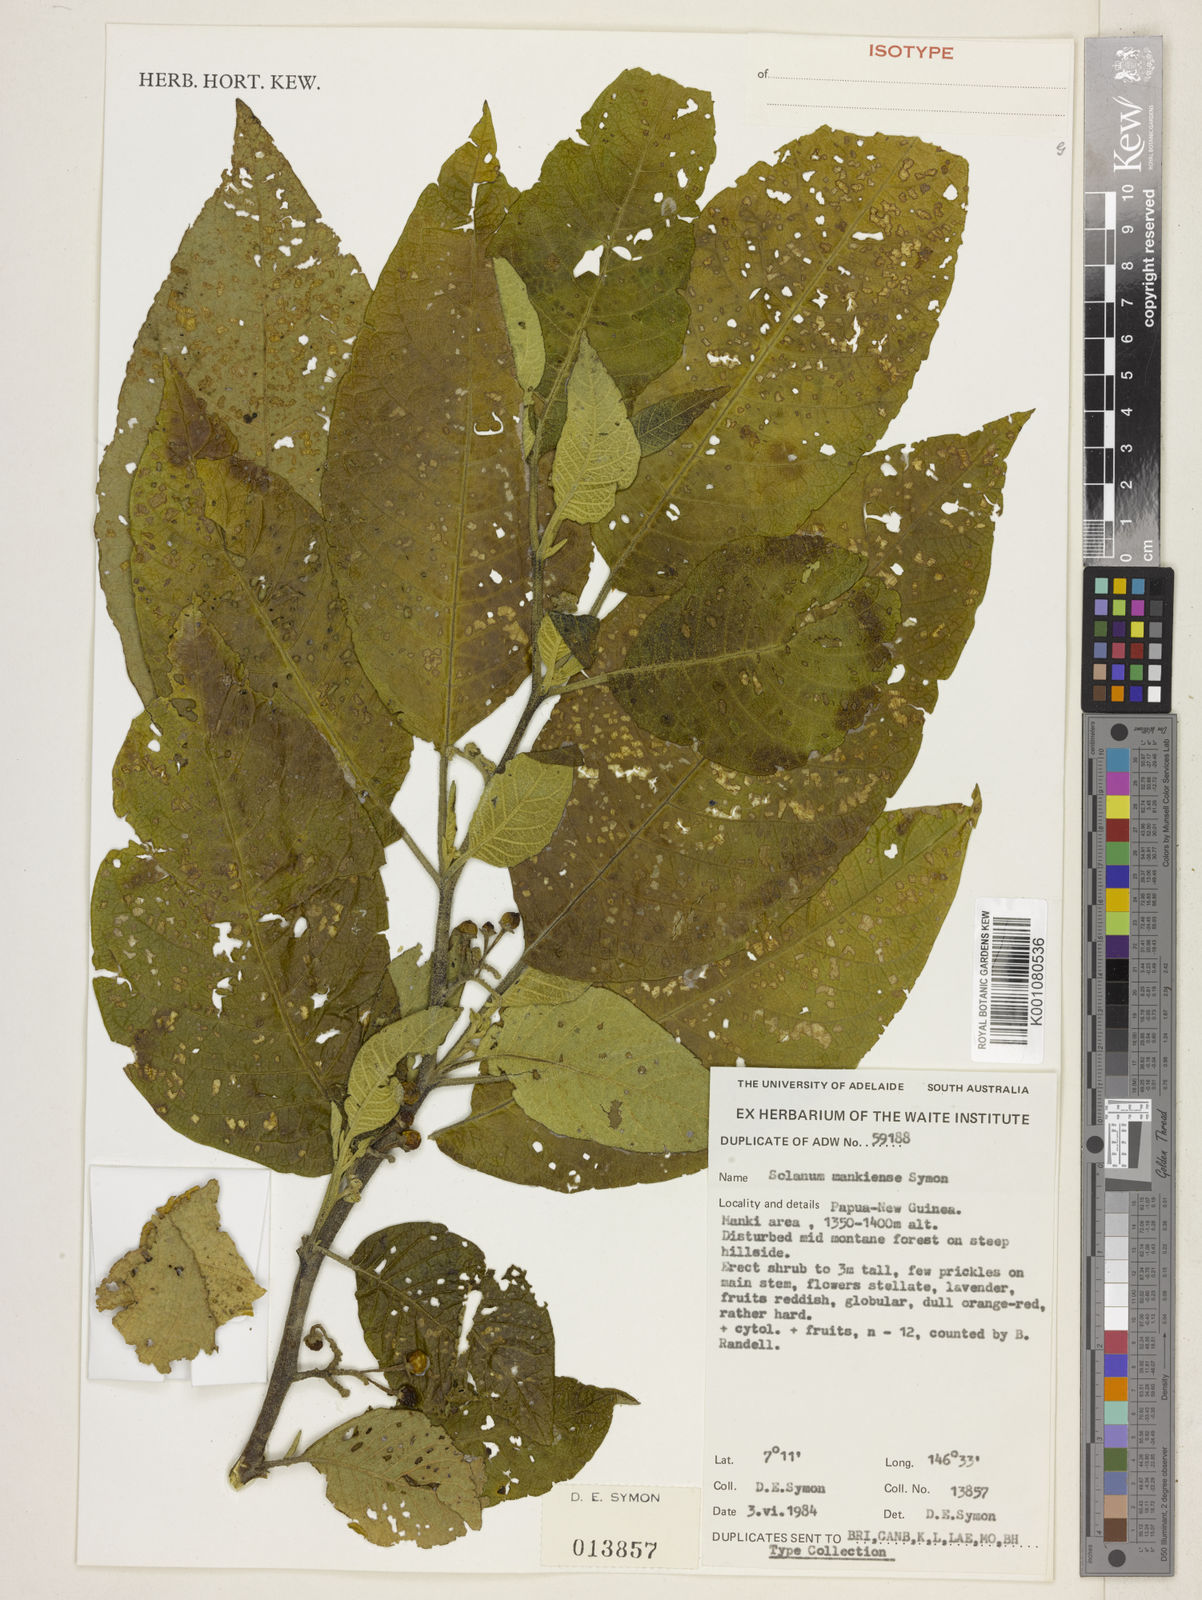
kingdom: Plantae
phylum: Tracheophyta
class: Magnoliopsida
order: Solanales
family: Solanaceae
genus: Solanum
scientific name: Solanum torricellense
